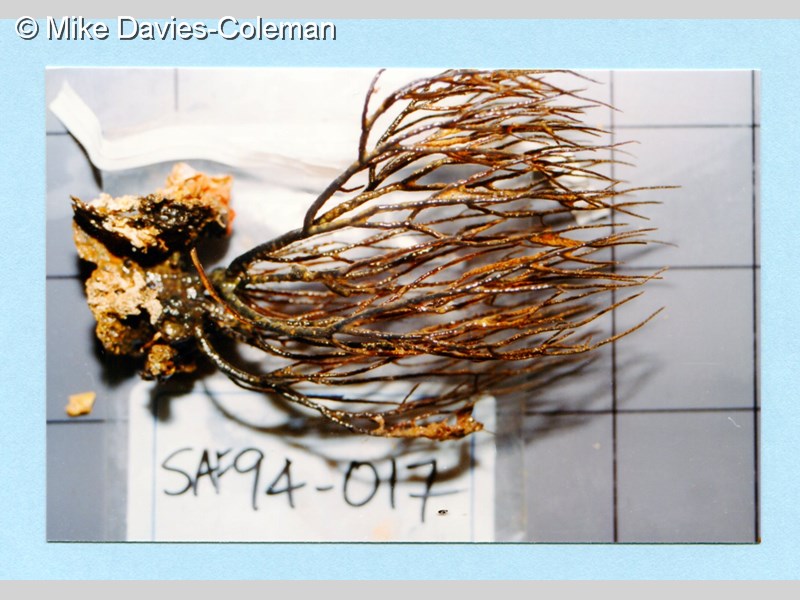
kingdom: Animalia
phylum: Cnidaria
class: Anthozoa
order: Antipatharia
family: Antipathidae
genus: Antipathes
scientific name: Antipathes
